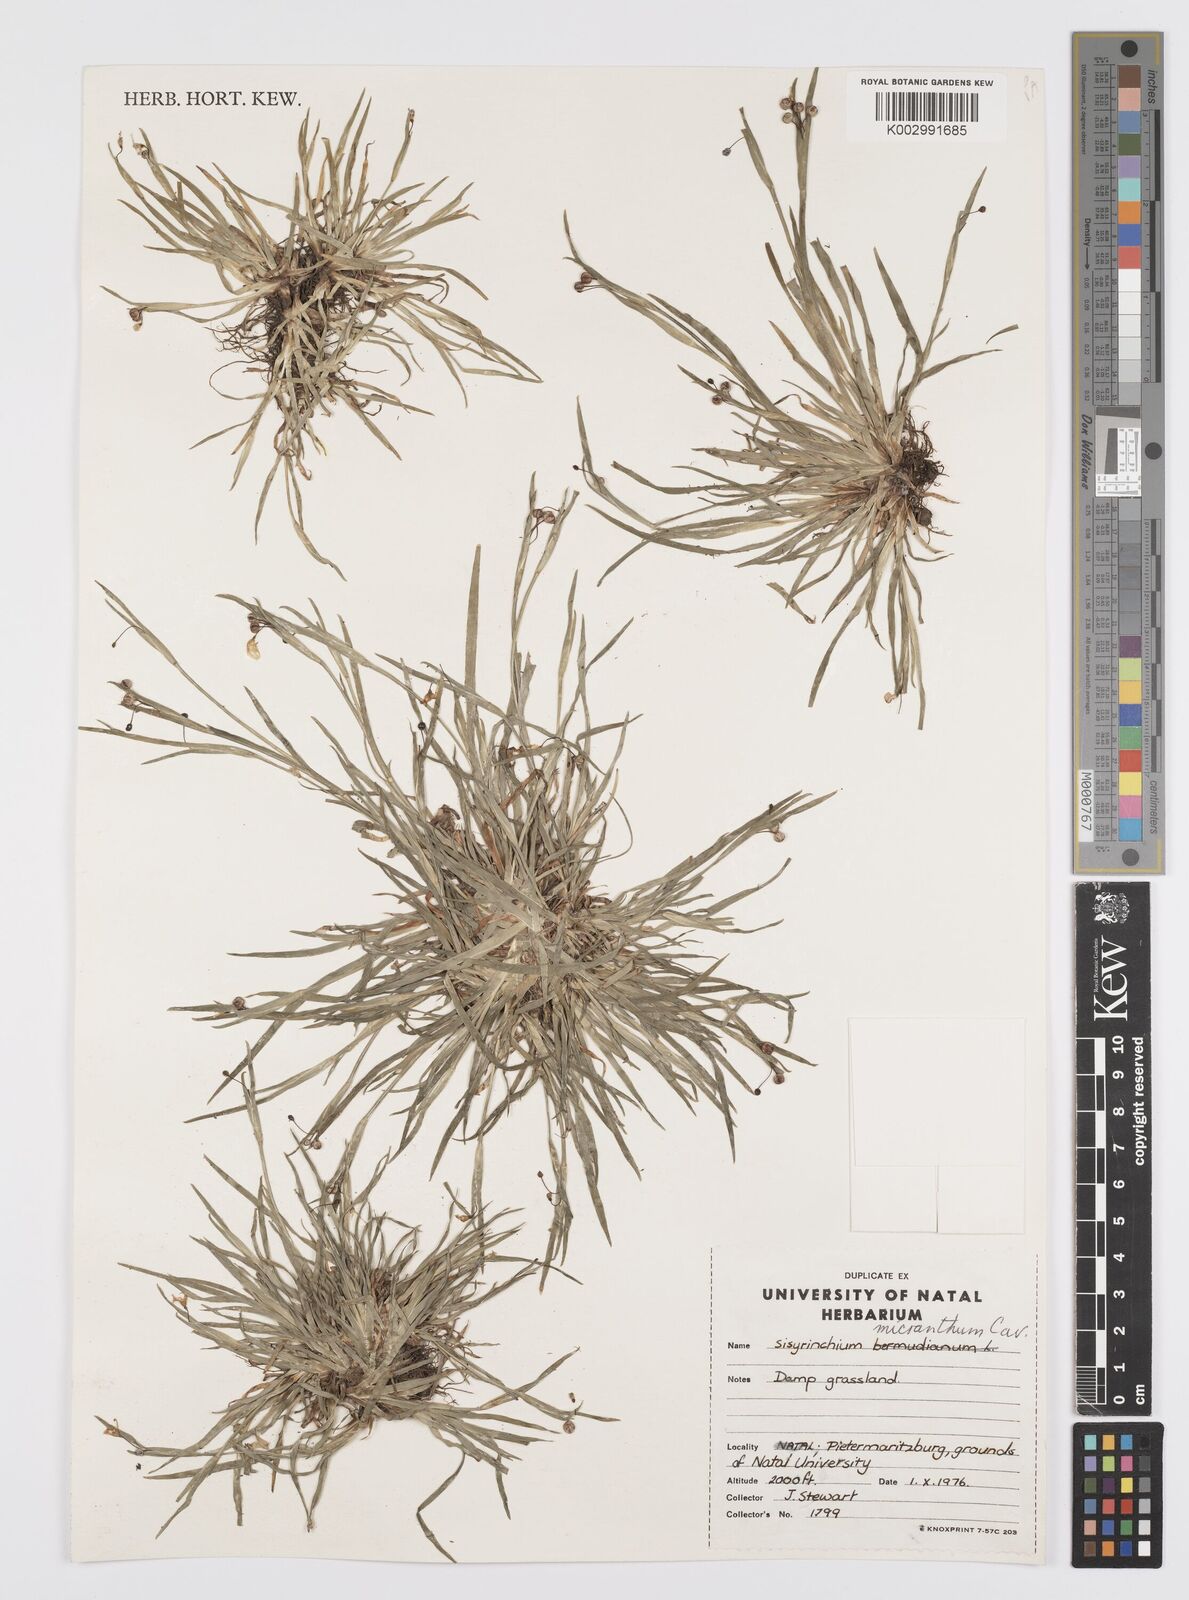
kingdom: Plantae
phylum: Tracheophyta
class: Liliopsida
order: Asparagales
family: Iridaceae
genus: Sisyrinchium
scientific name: Sisyrinchium micranthum
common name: Bermuda pigroot
